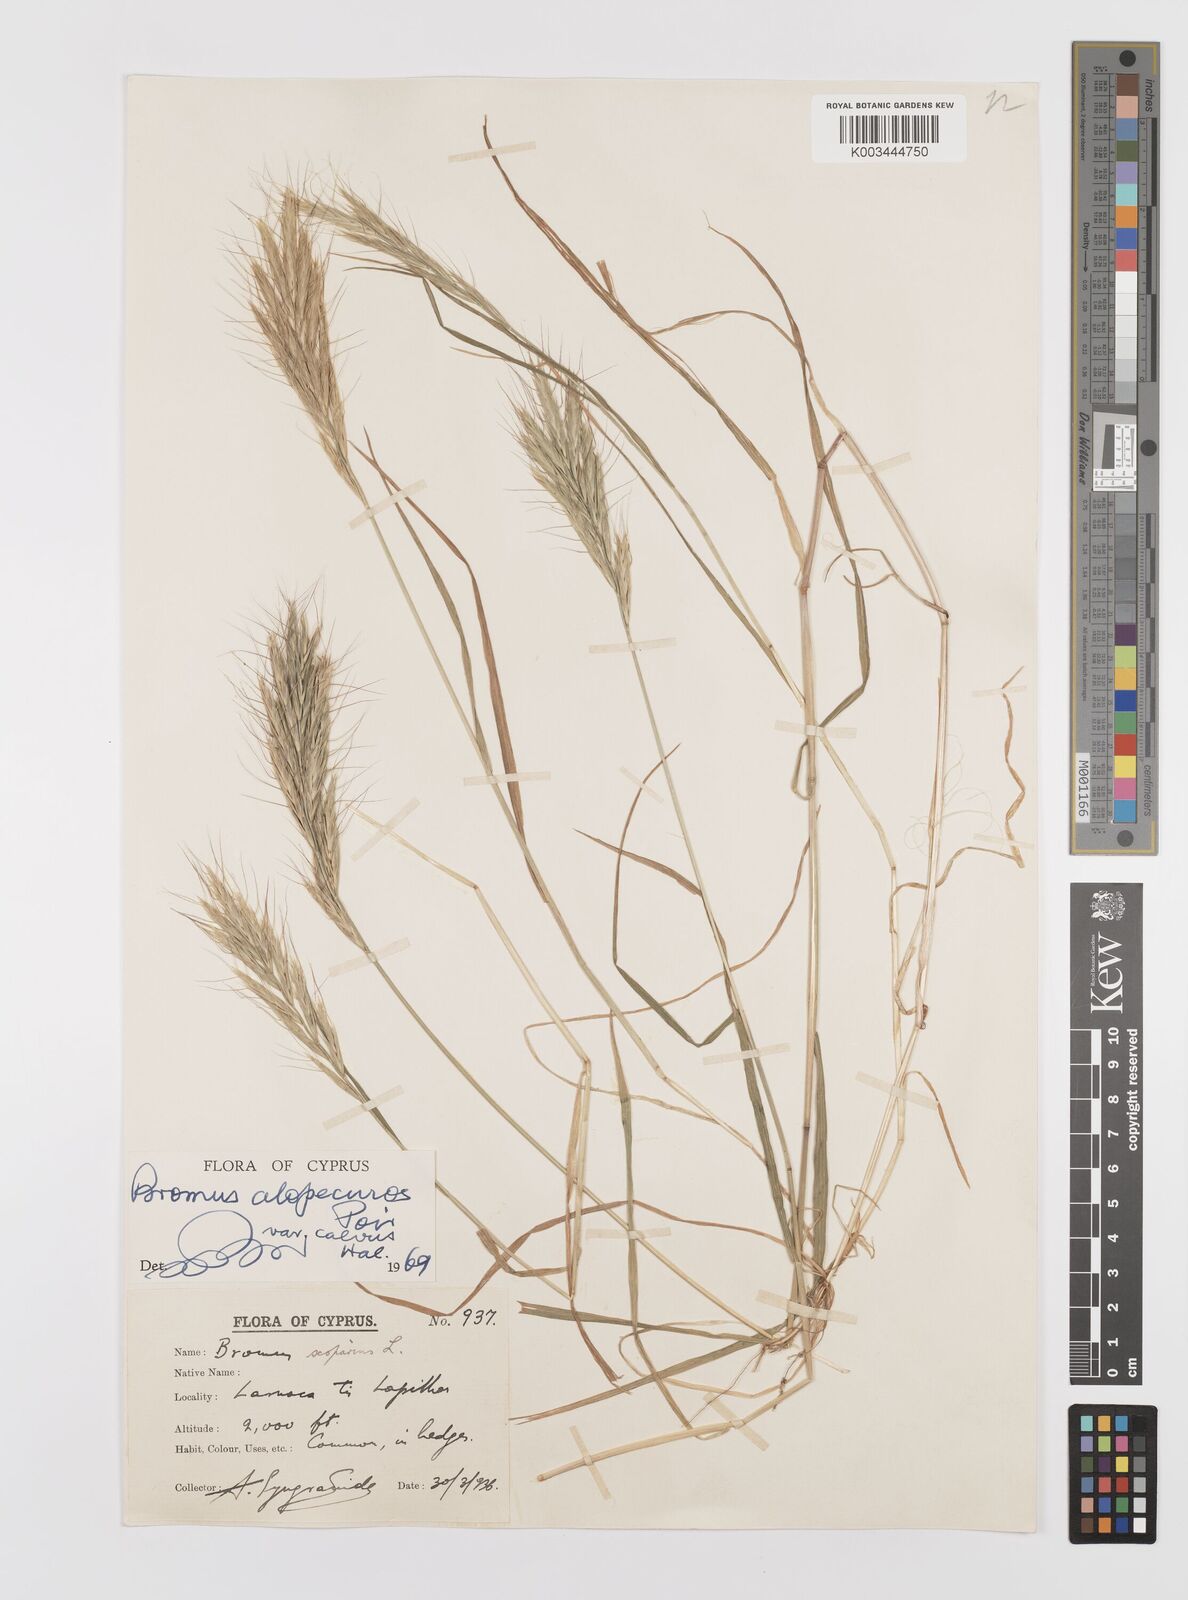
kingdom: Plantae
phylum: Tracheophyta
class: Liliopsida
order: Poales
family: Poaceae
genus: Bromus
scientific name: Bromus alopecuros
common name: Weedy brome
